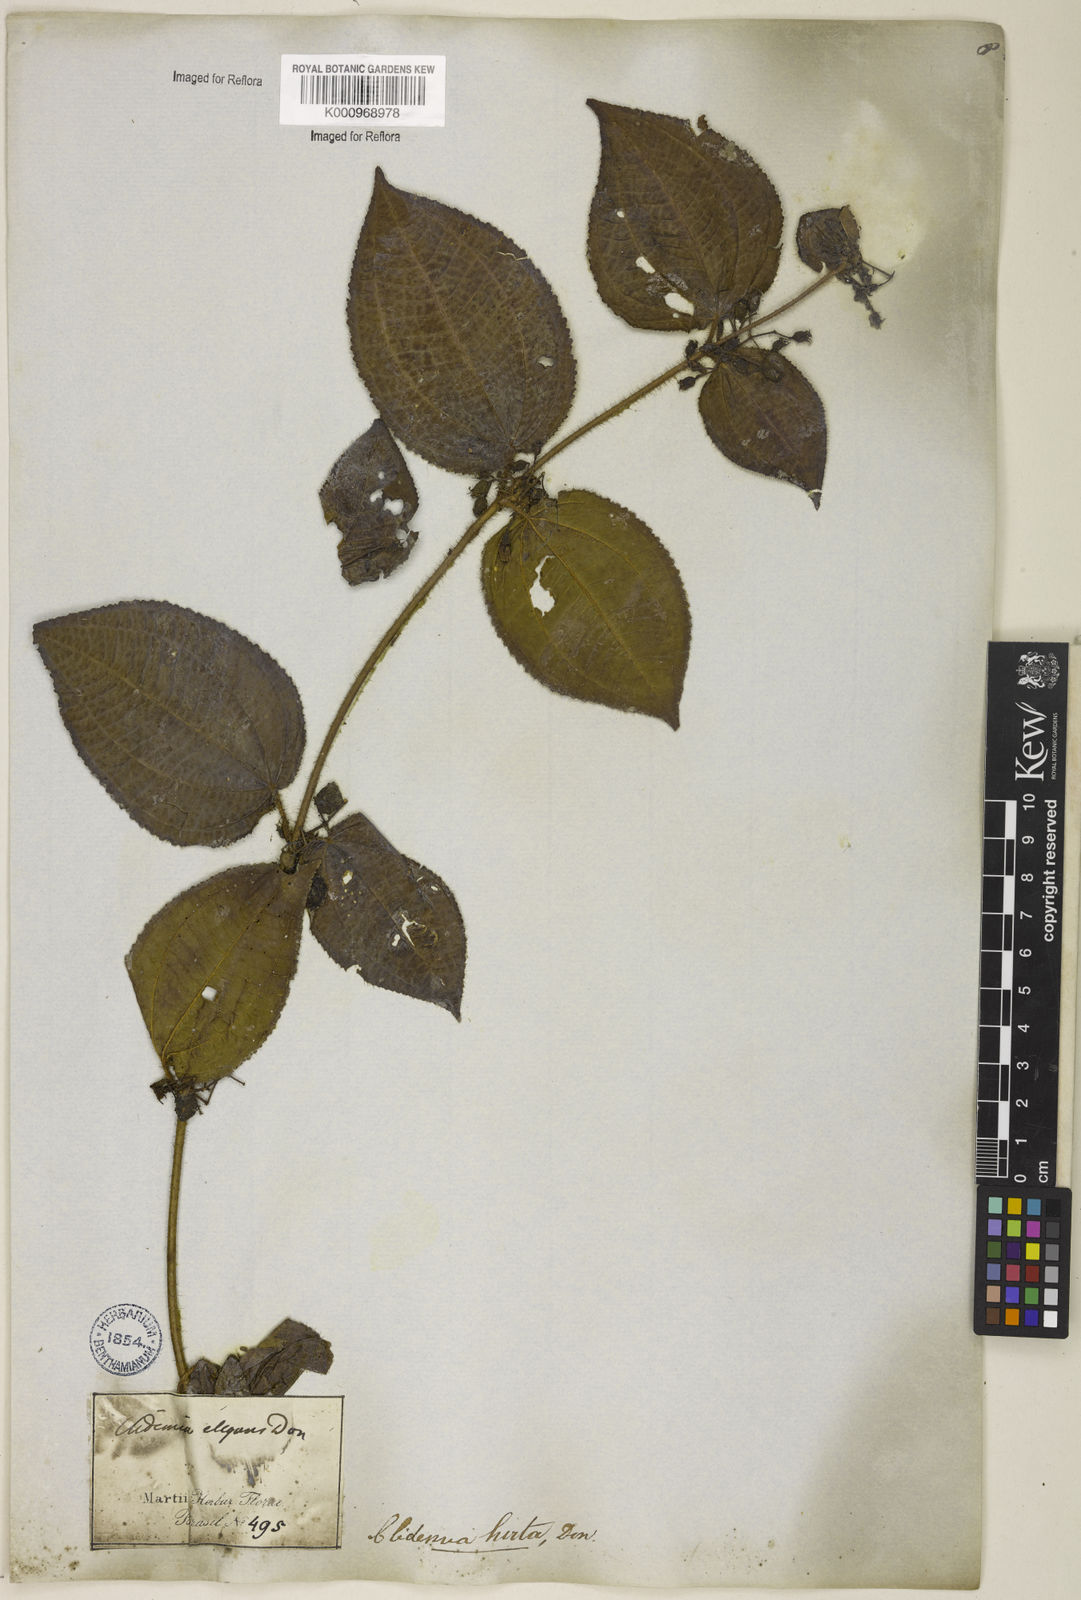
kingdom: Plantae
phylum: Tracheophyta
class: Magnoliopsida
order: Myrtales
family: Melastomataceae
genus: Miconia
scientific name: Miconia crenata
